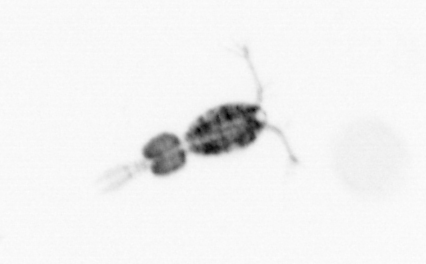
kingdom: Animalia
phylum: Arthropoda
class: Copepoda
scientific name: Copepoda
